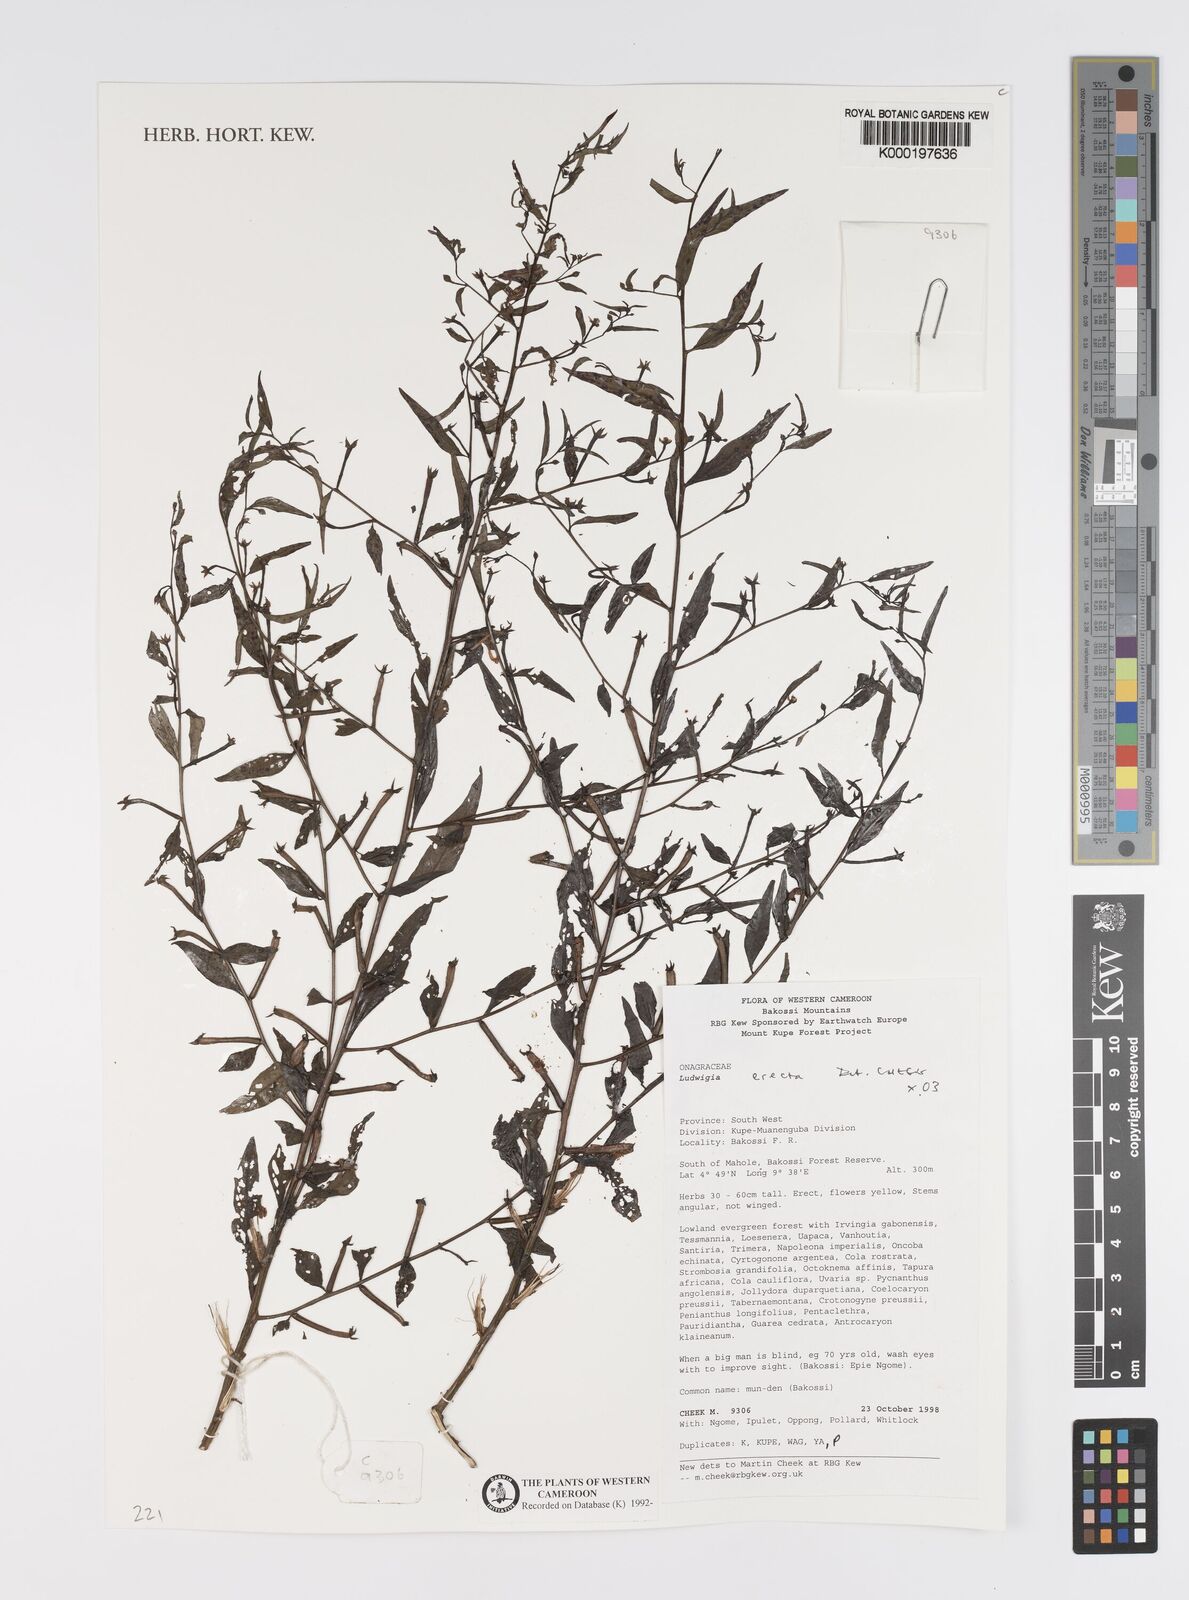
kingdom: Plantae
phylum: Tracheophyta
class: Magnoliopsida
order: Myrtales
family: Onagraceae
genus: Ludwigia
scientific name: Ludwigia erecta
